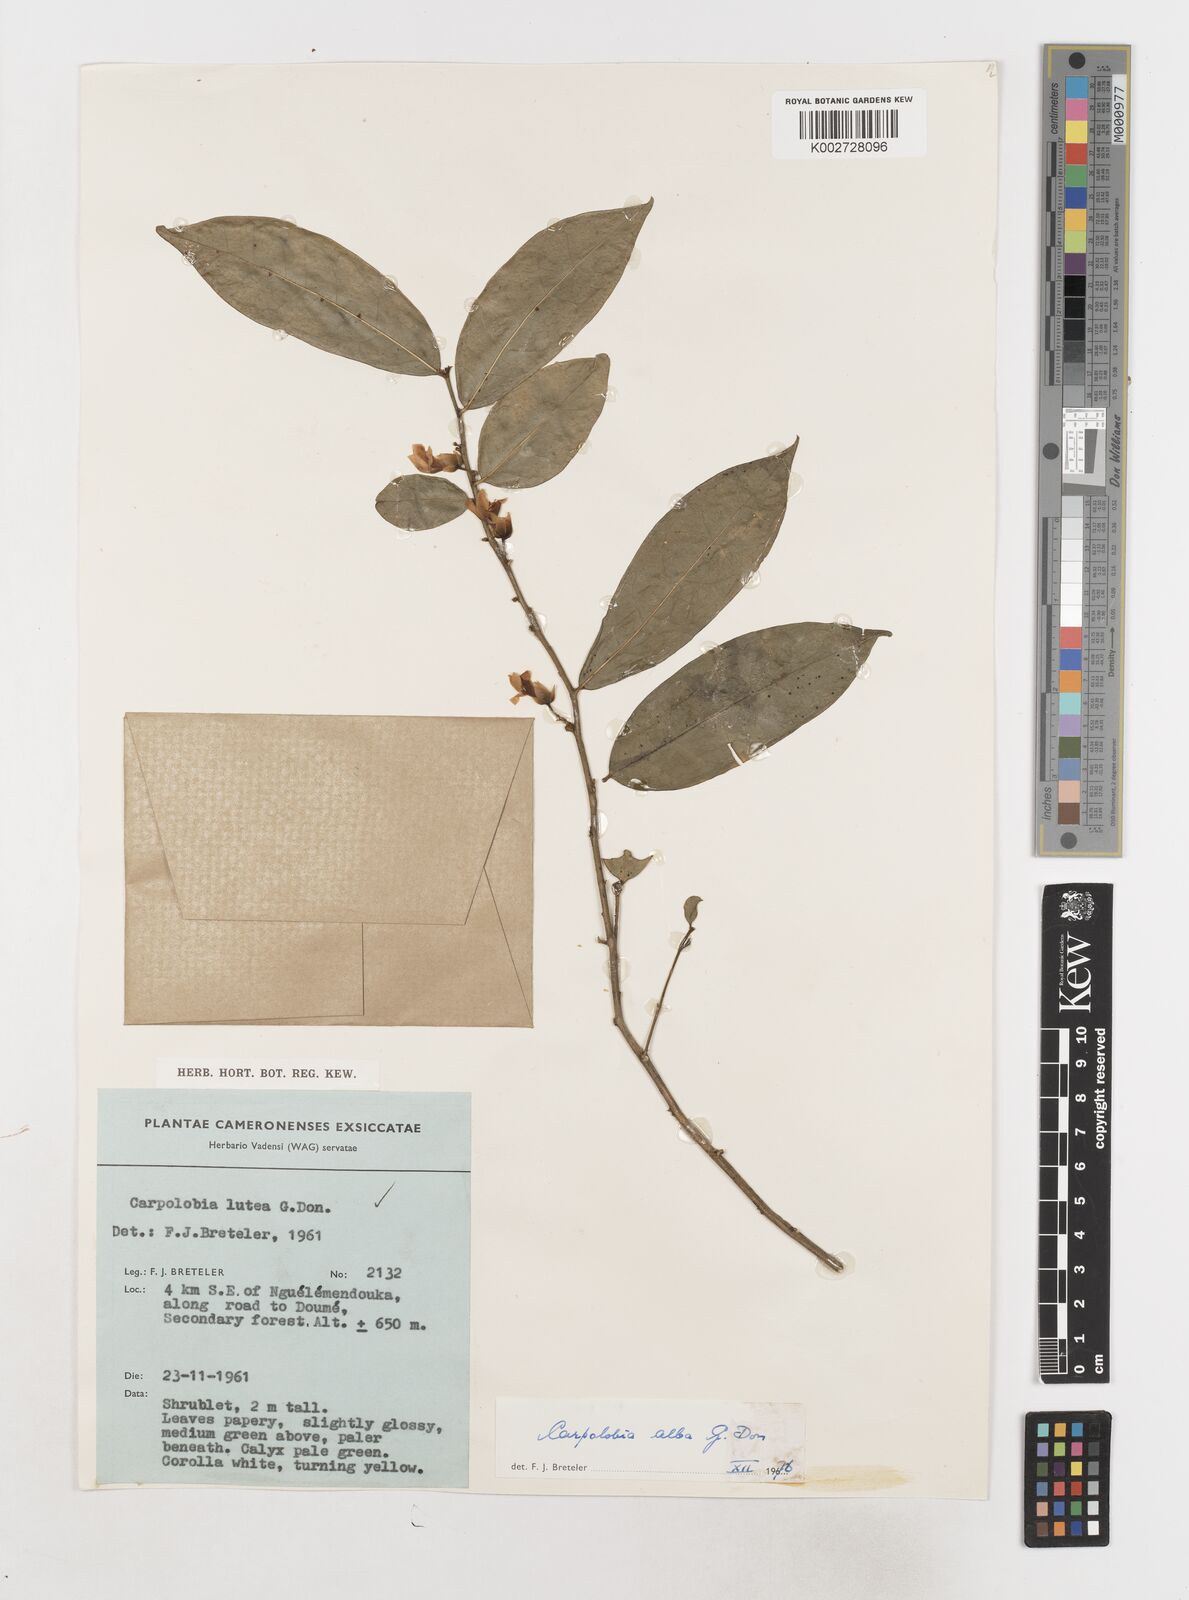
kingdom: Plantae
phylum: Tracheophyta
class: Magnoliopsida
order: Fabales
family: Polygalaceae
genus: Carpolobia
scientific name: Carpolobia alba
